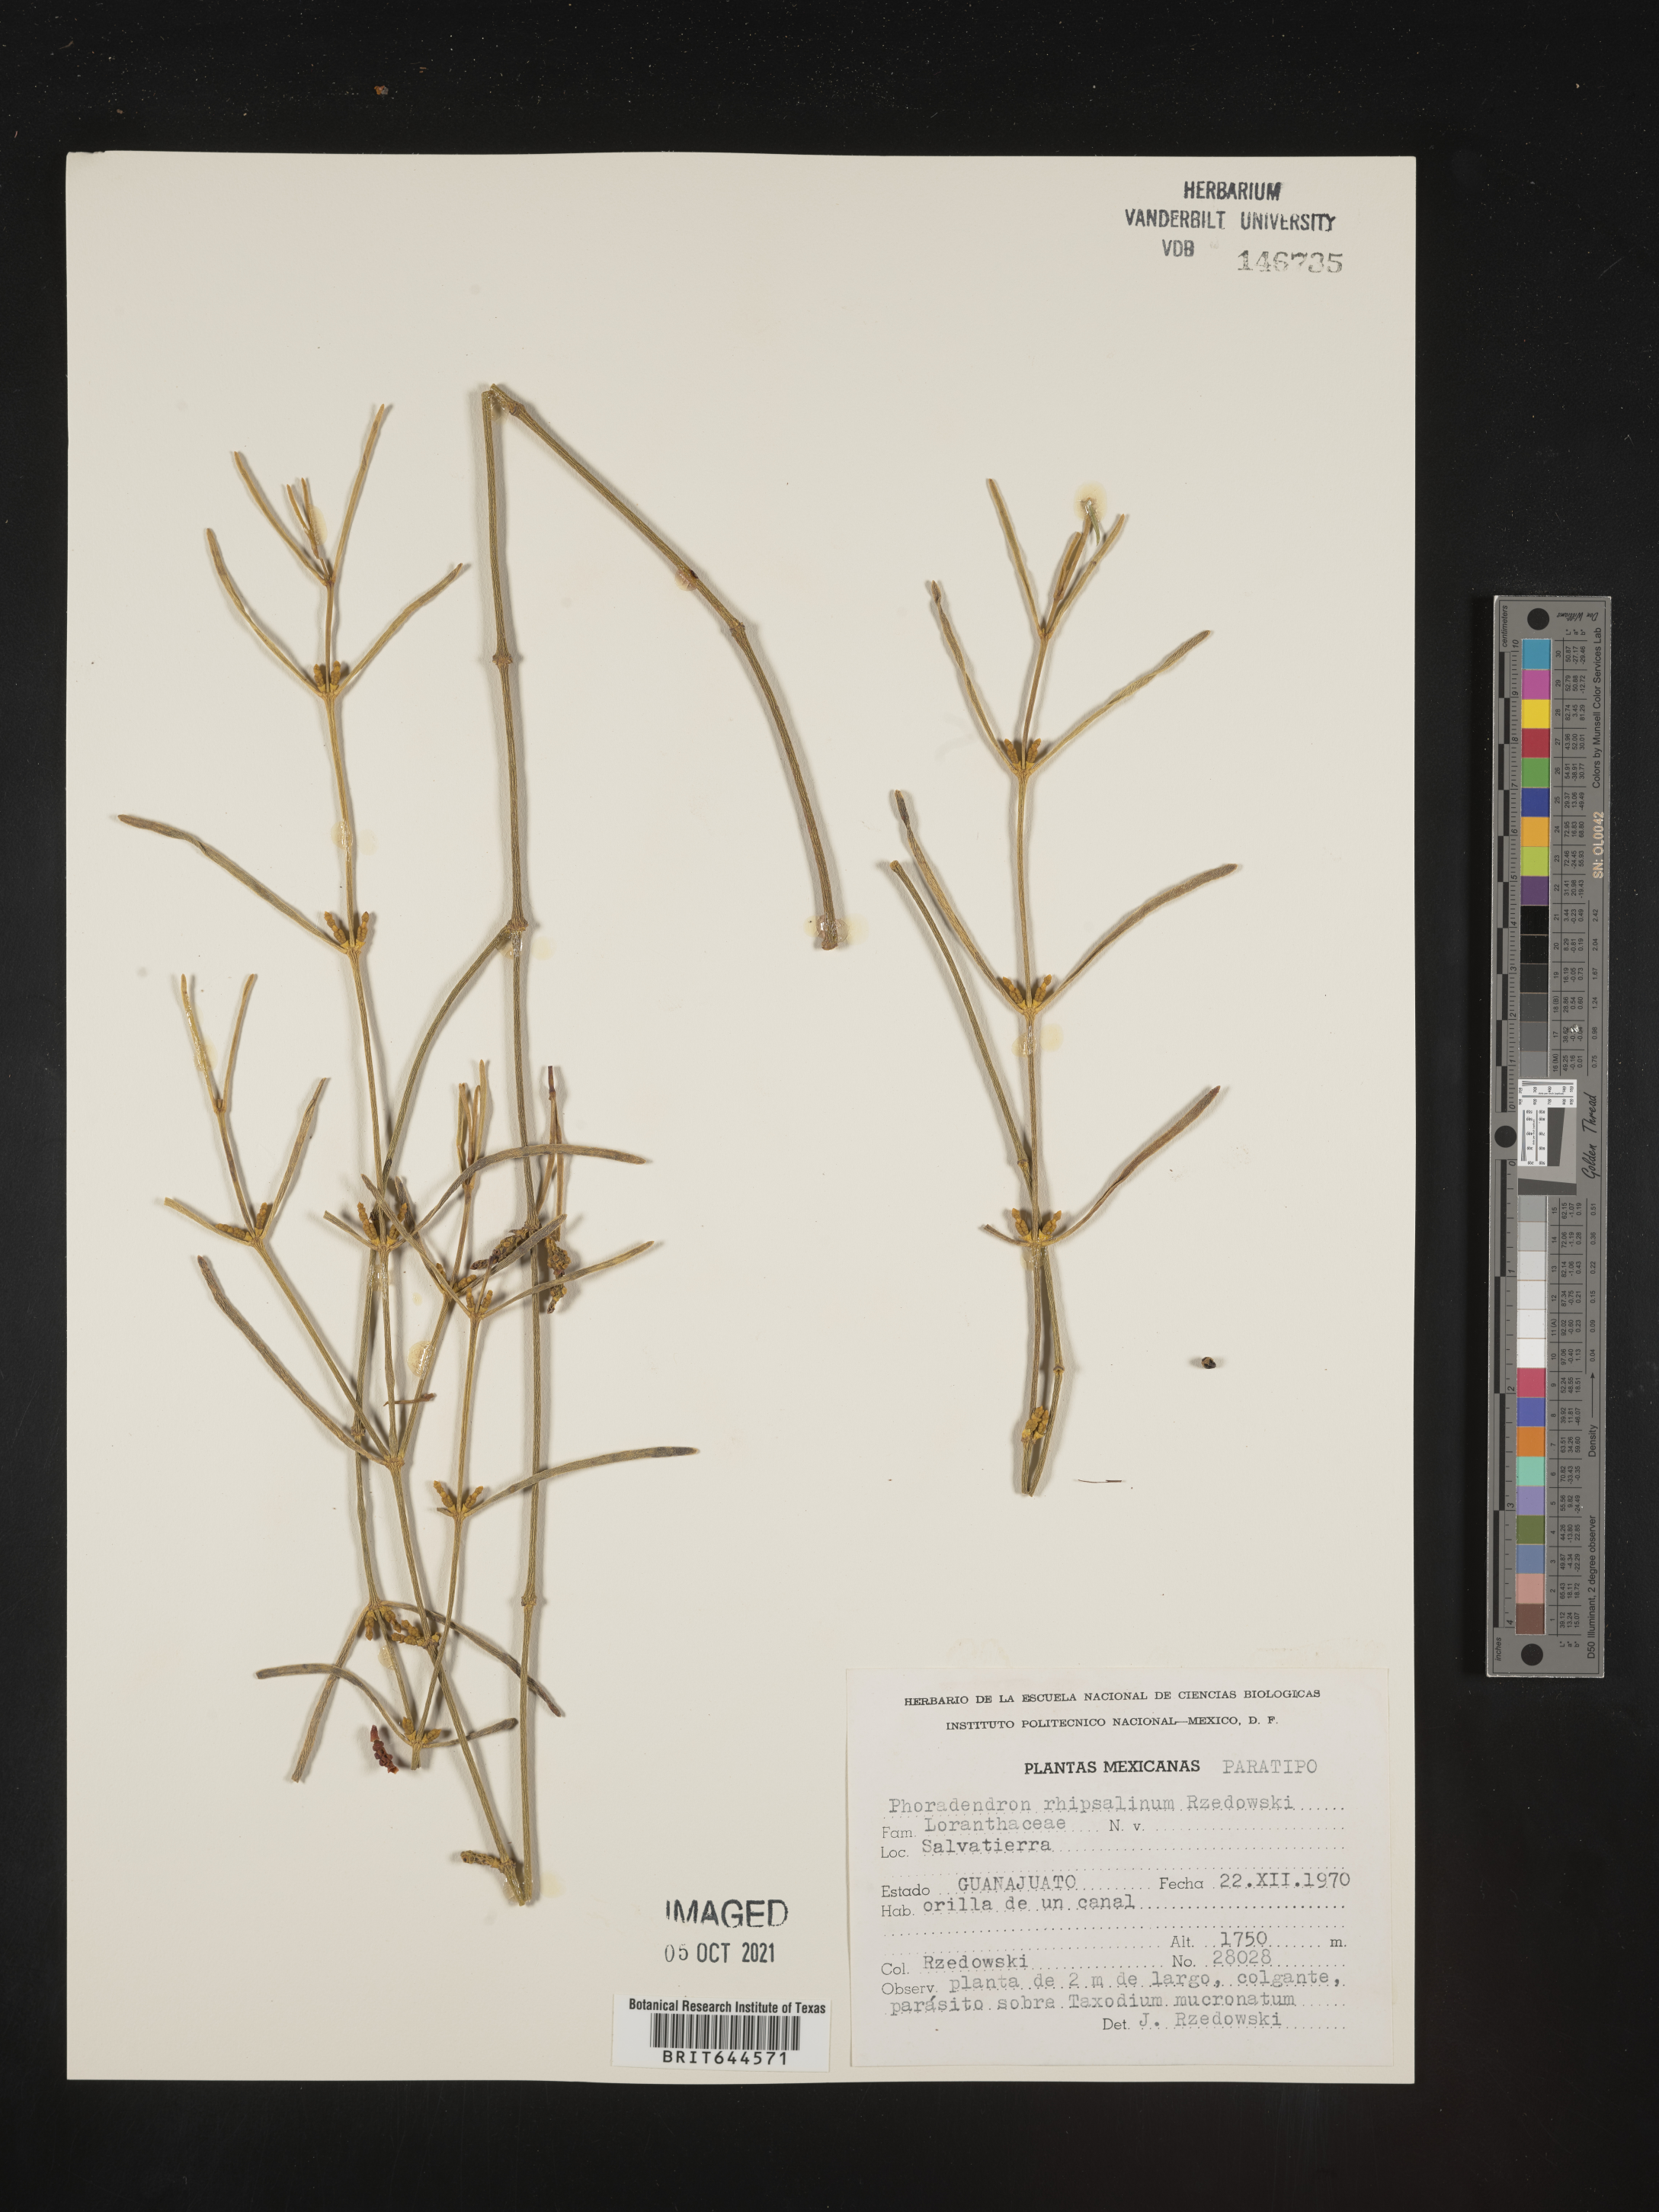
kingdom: Plantae
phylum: Tracheophyta
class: Magnoliopsida
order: Santalales
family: Viscaceae
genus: Phoradendron
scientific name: Phoradendron
